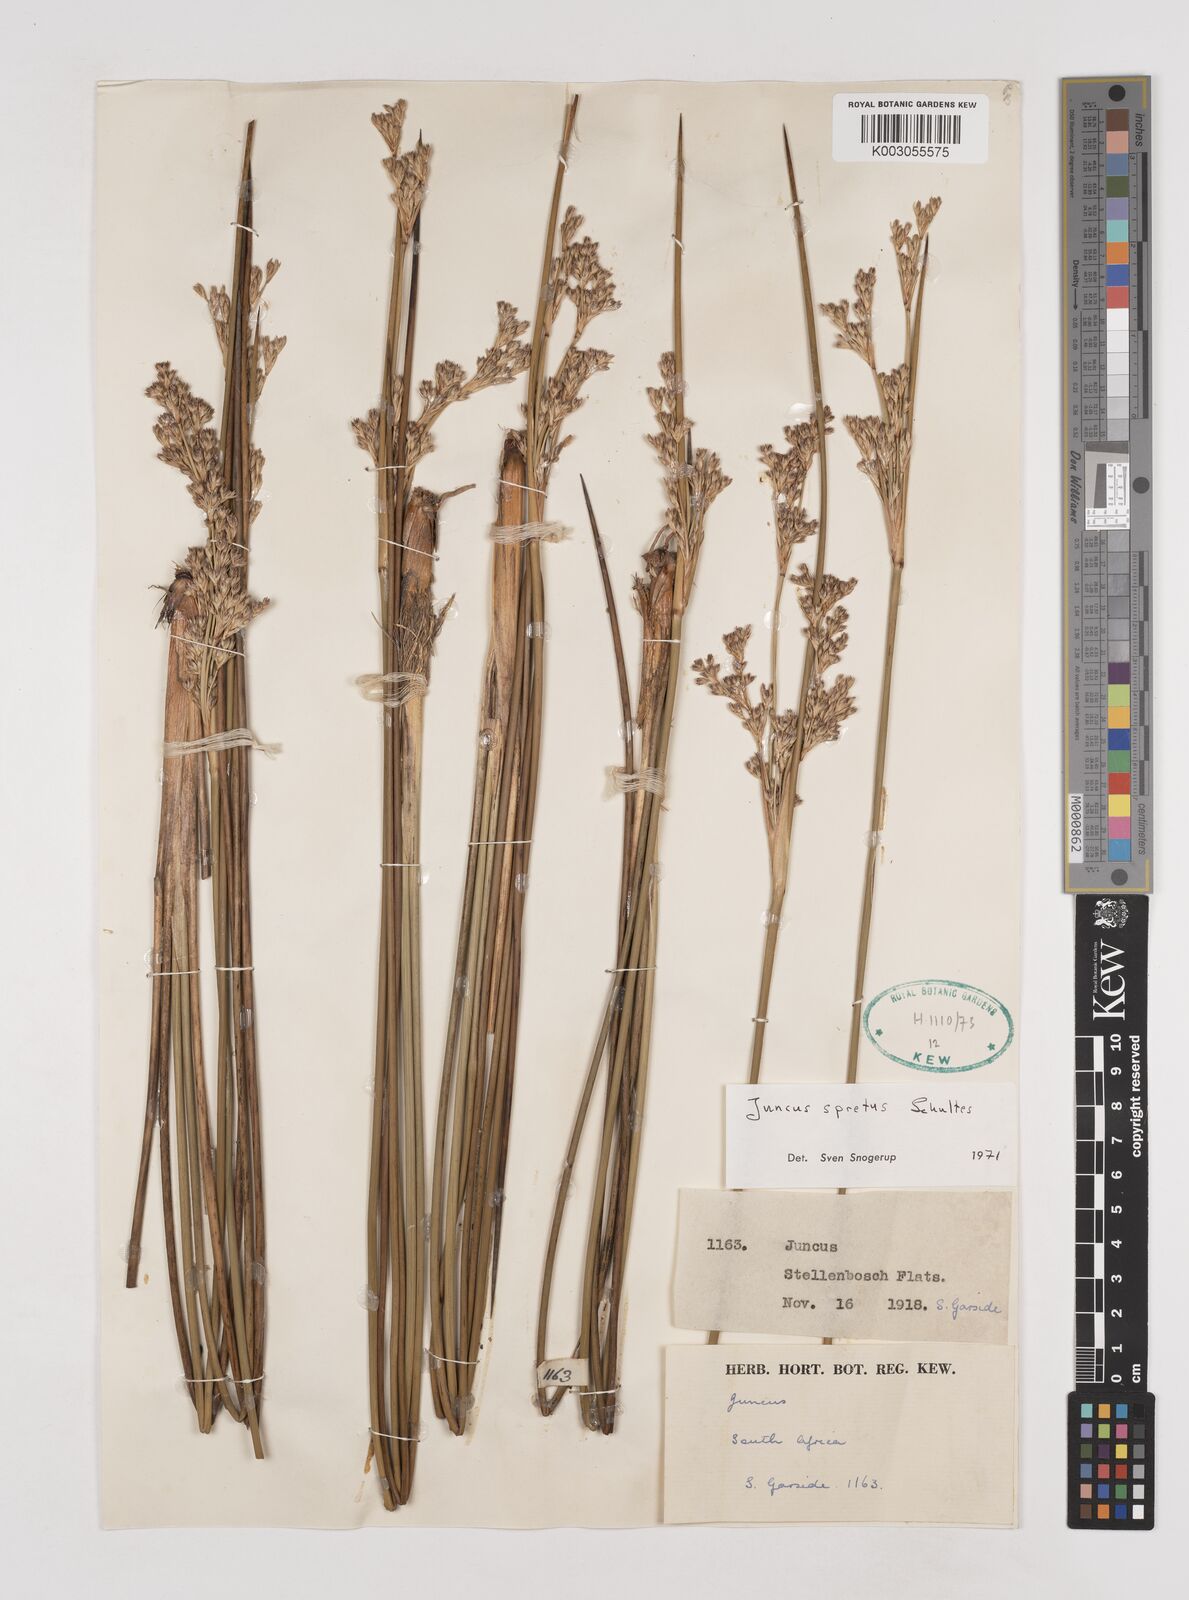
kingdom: Plantae
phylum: Tracheophyta
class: Liliopsida
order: Poales
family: Juncaceae
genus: Juncus
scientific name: Juncus kraussii
